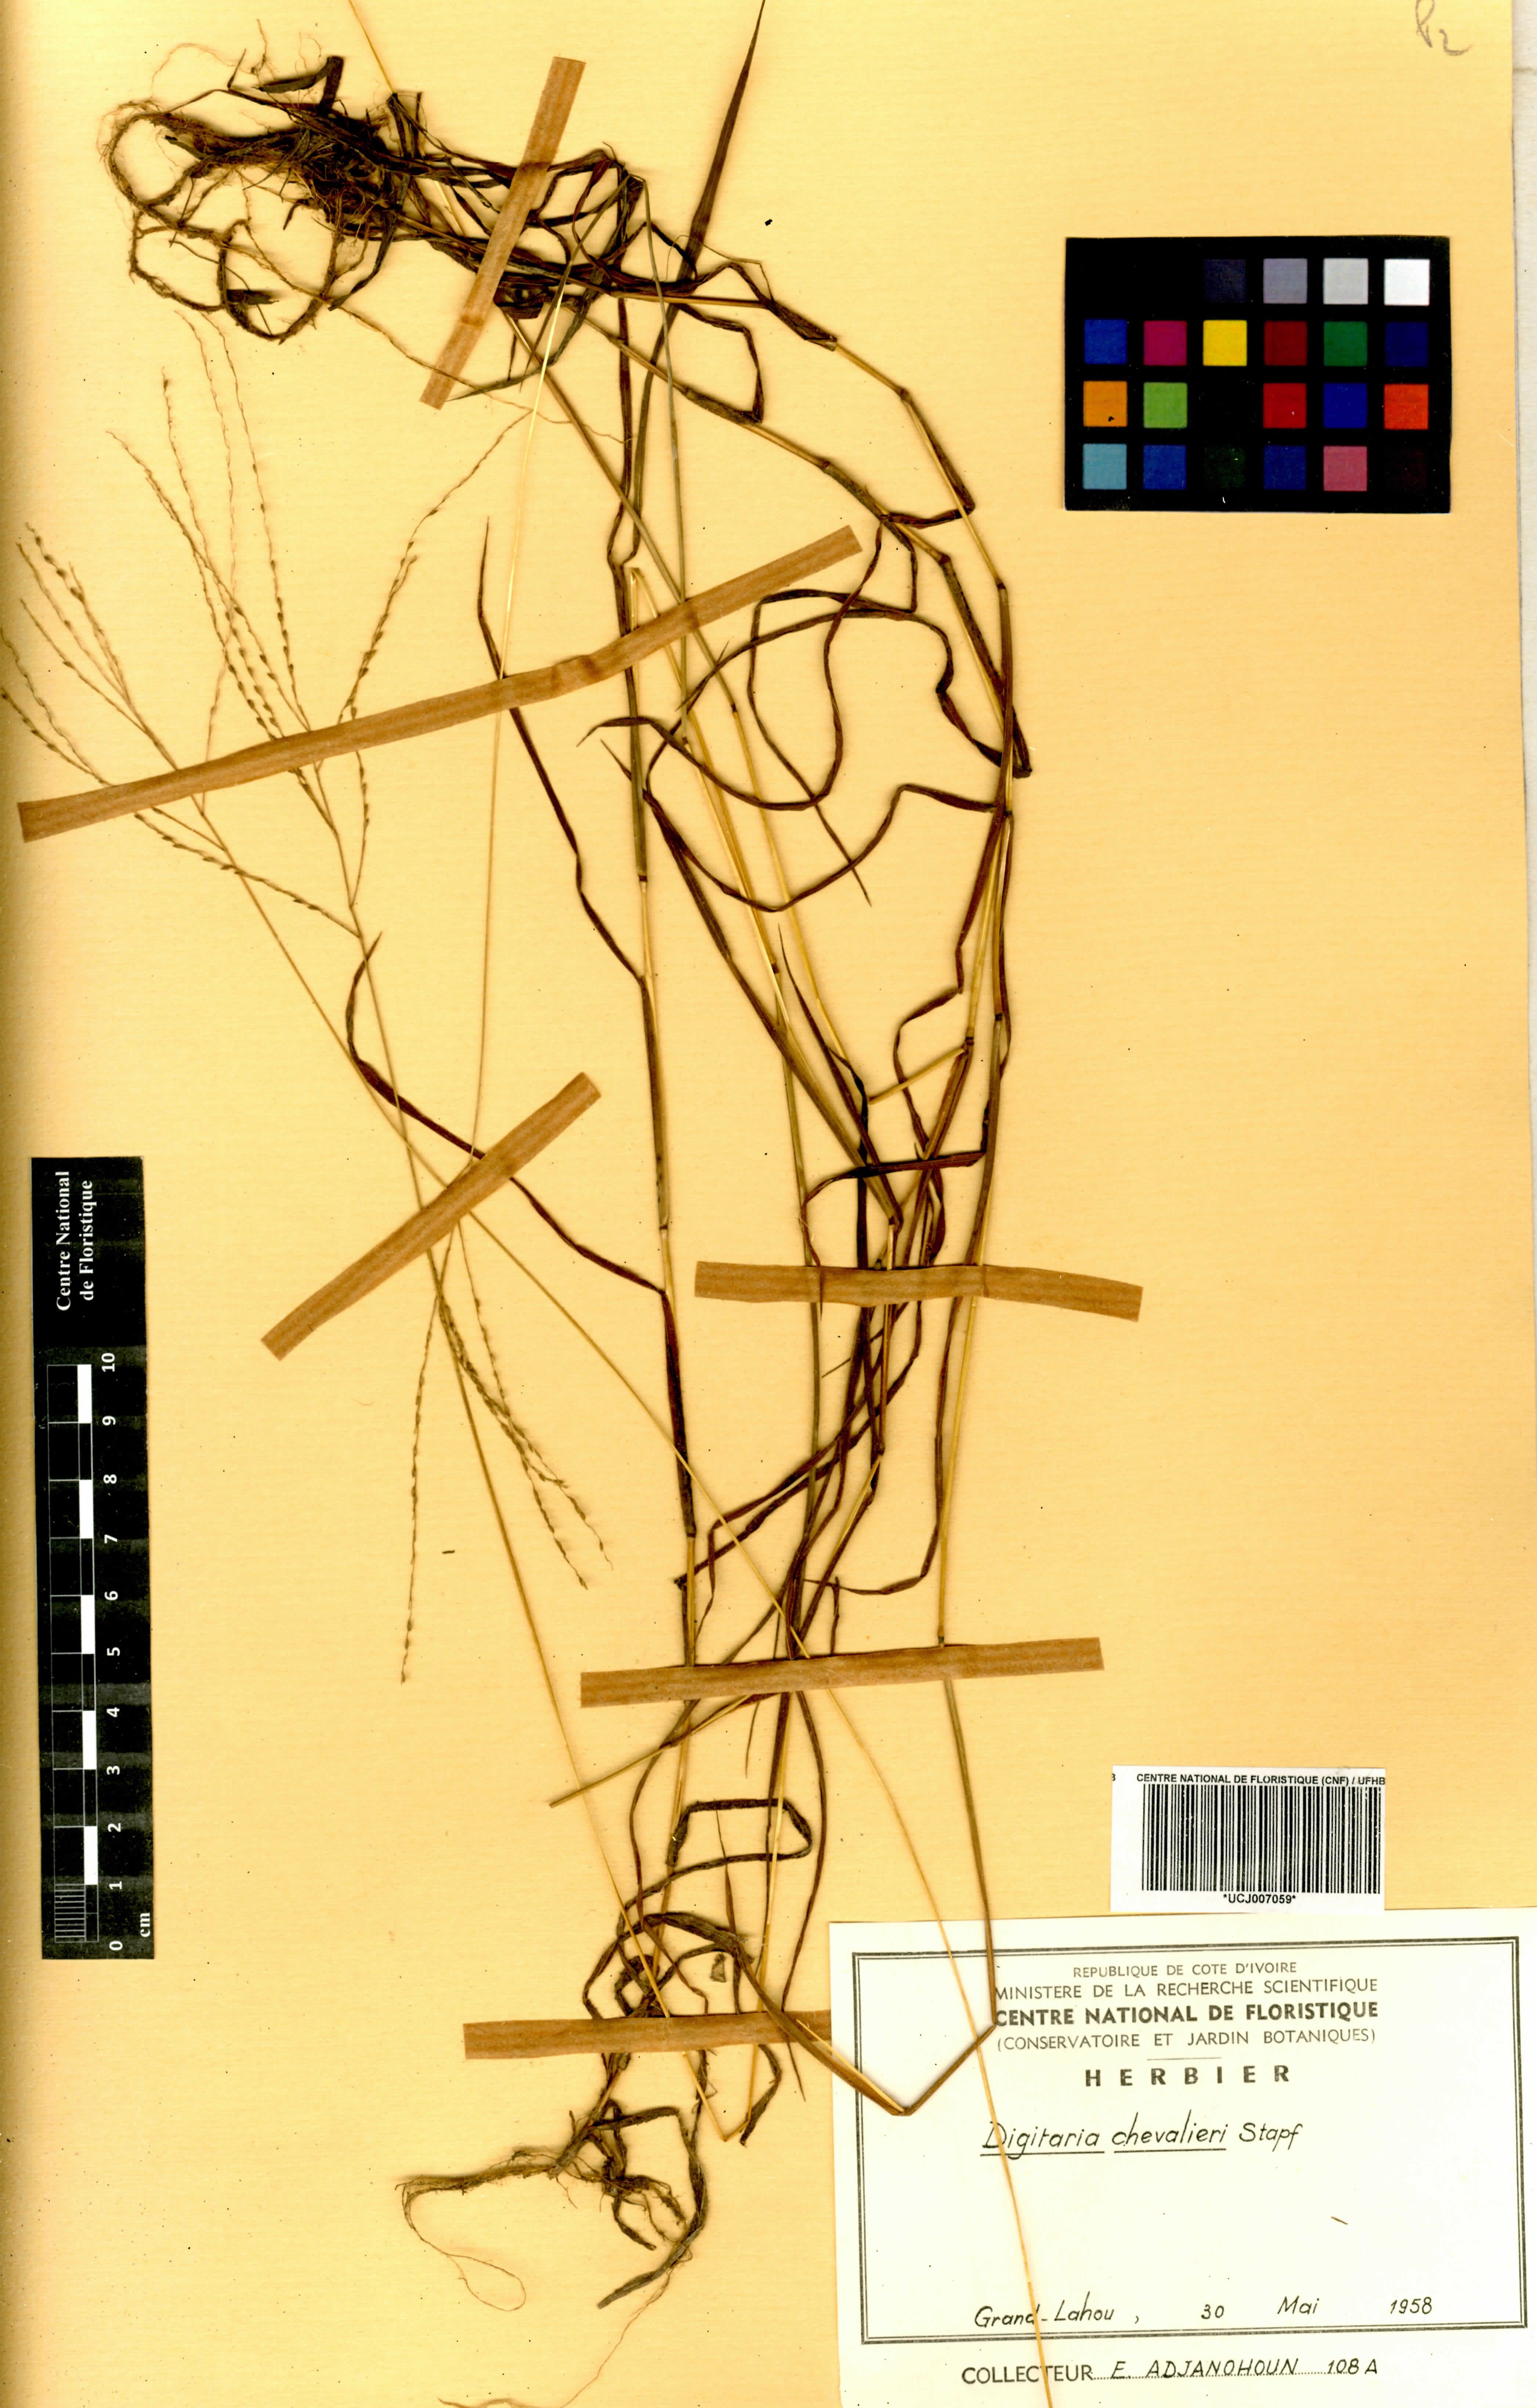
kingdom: Plantae
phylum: Tracheophyta
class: Liliopsida
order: Poales
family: Poaceae
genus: Digitaria
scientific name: Digitaria leptorhachis
